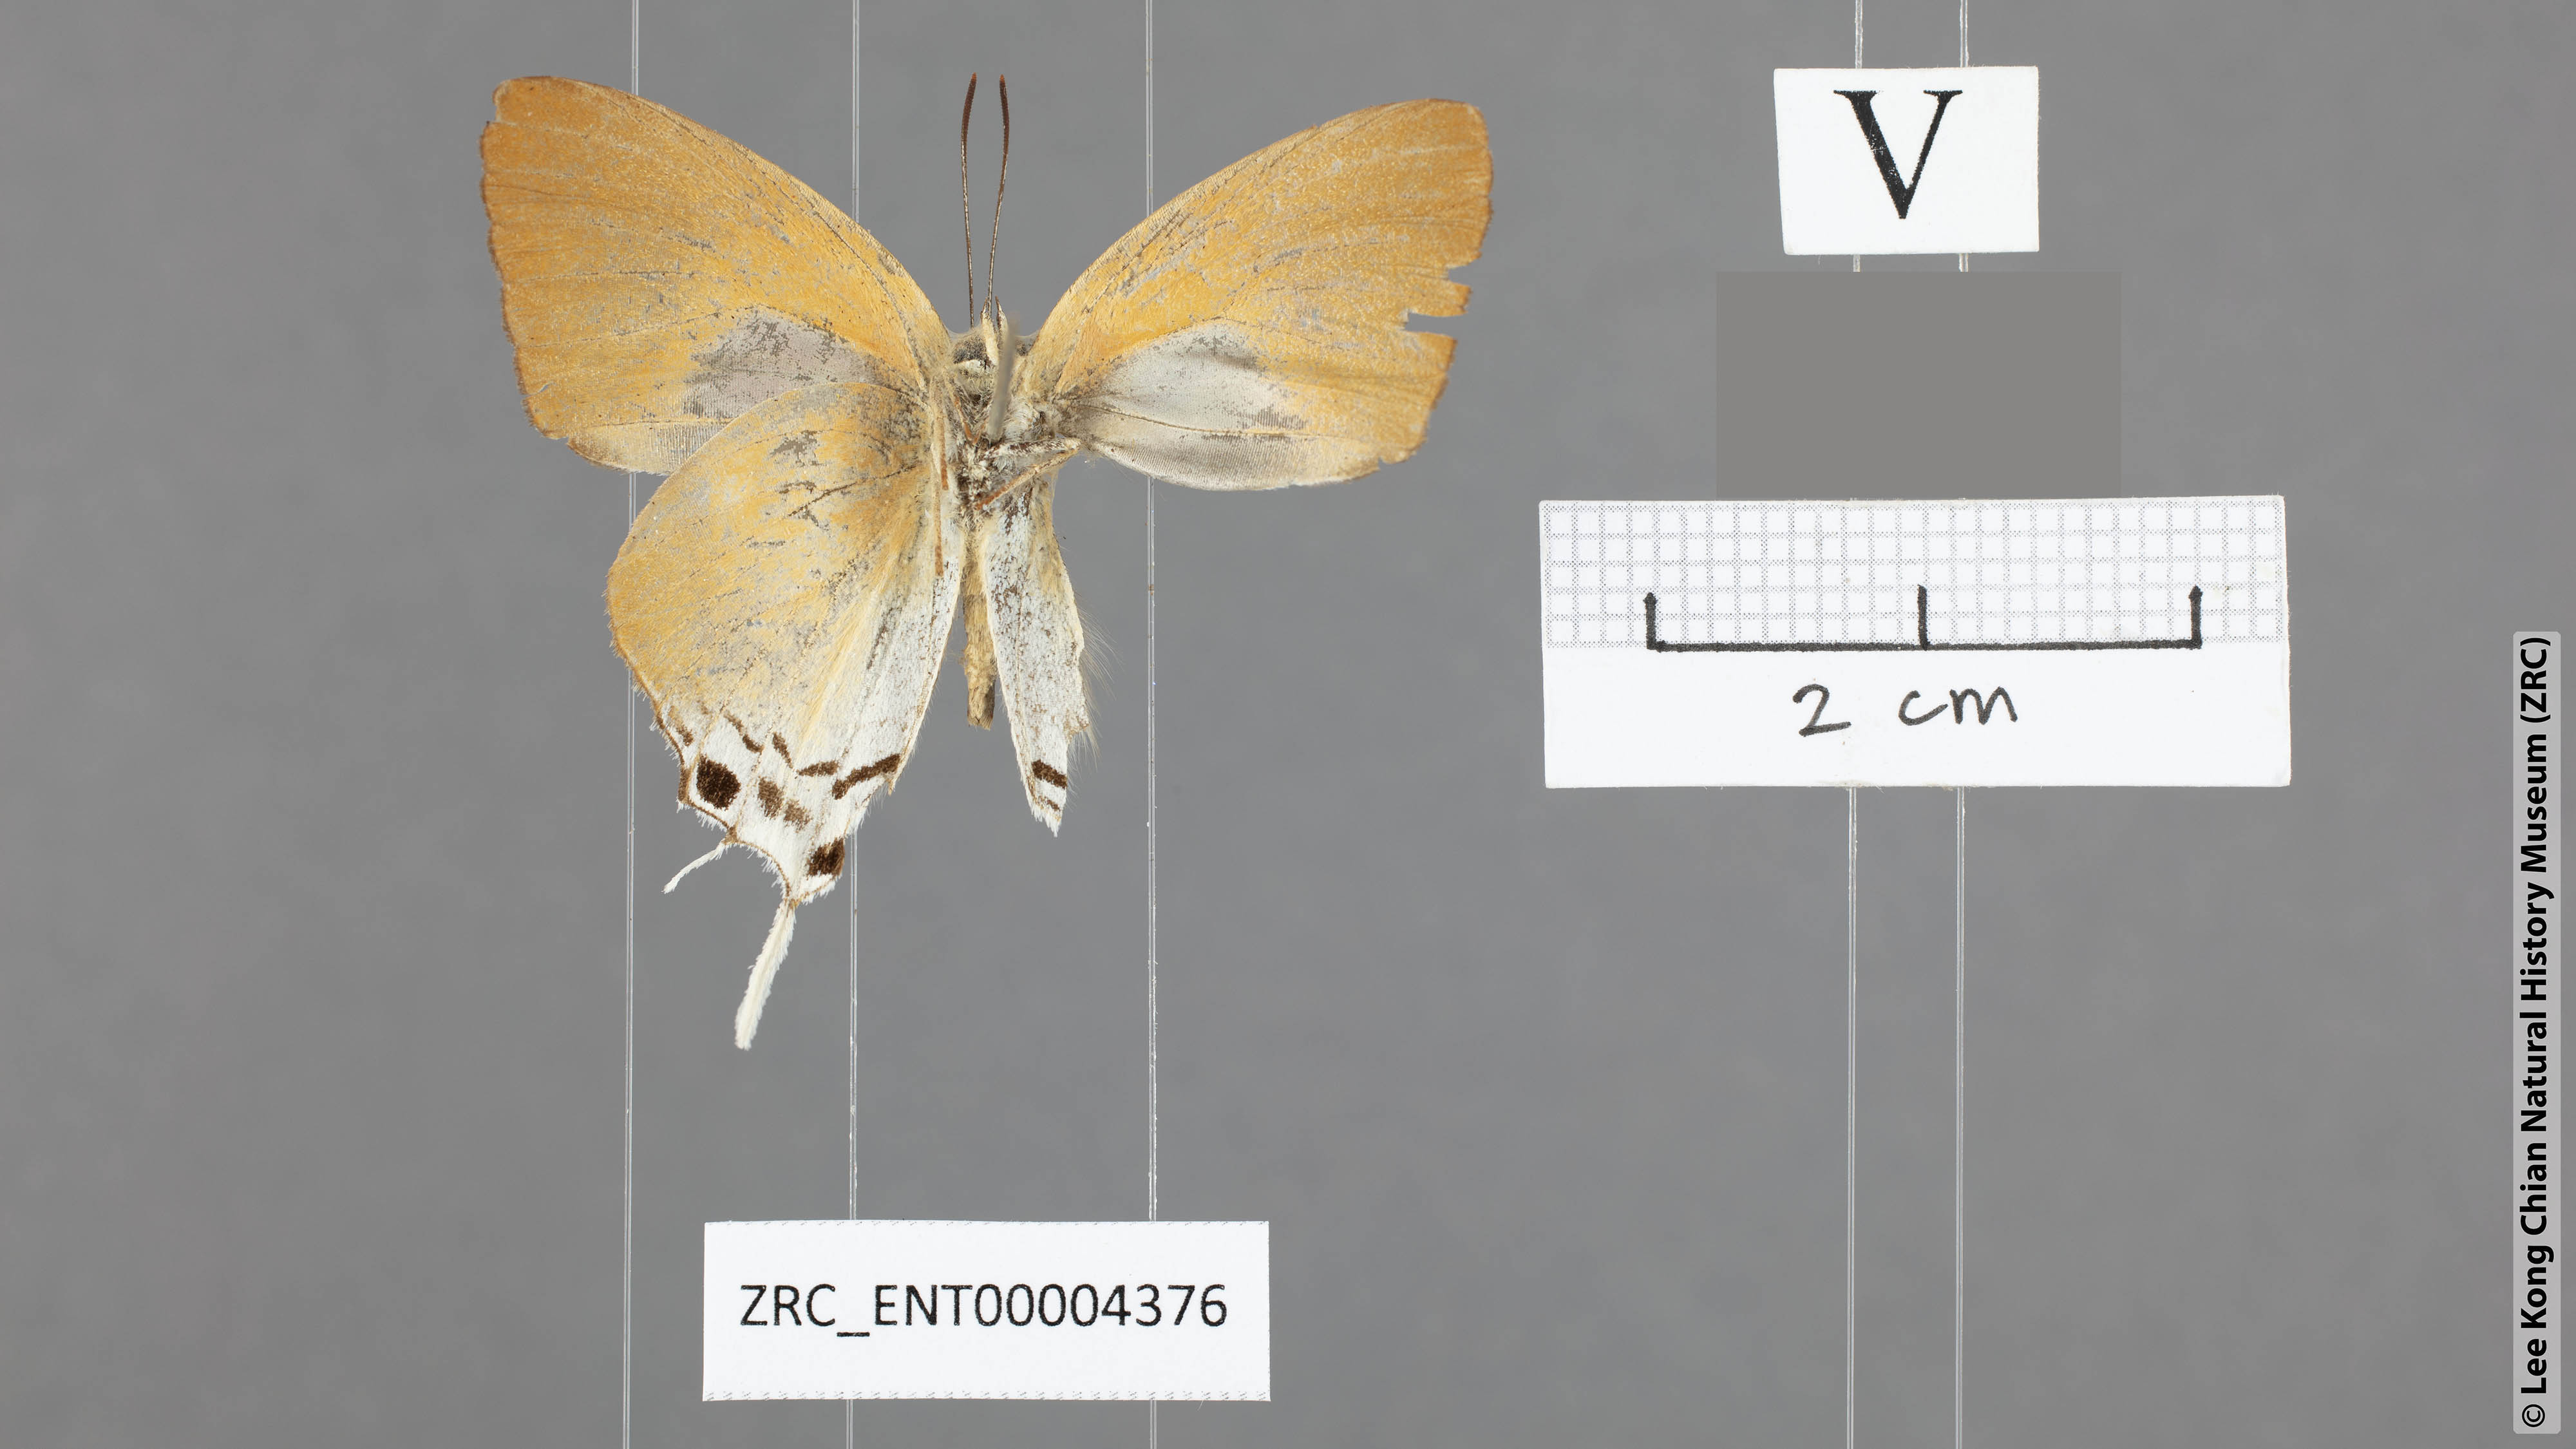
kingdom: Animalia
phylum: Arthropoda
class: Insecta
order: Lepidoptera
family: Lycaenidae
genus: Manto
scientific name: Manto hypoleuca
